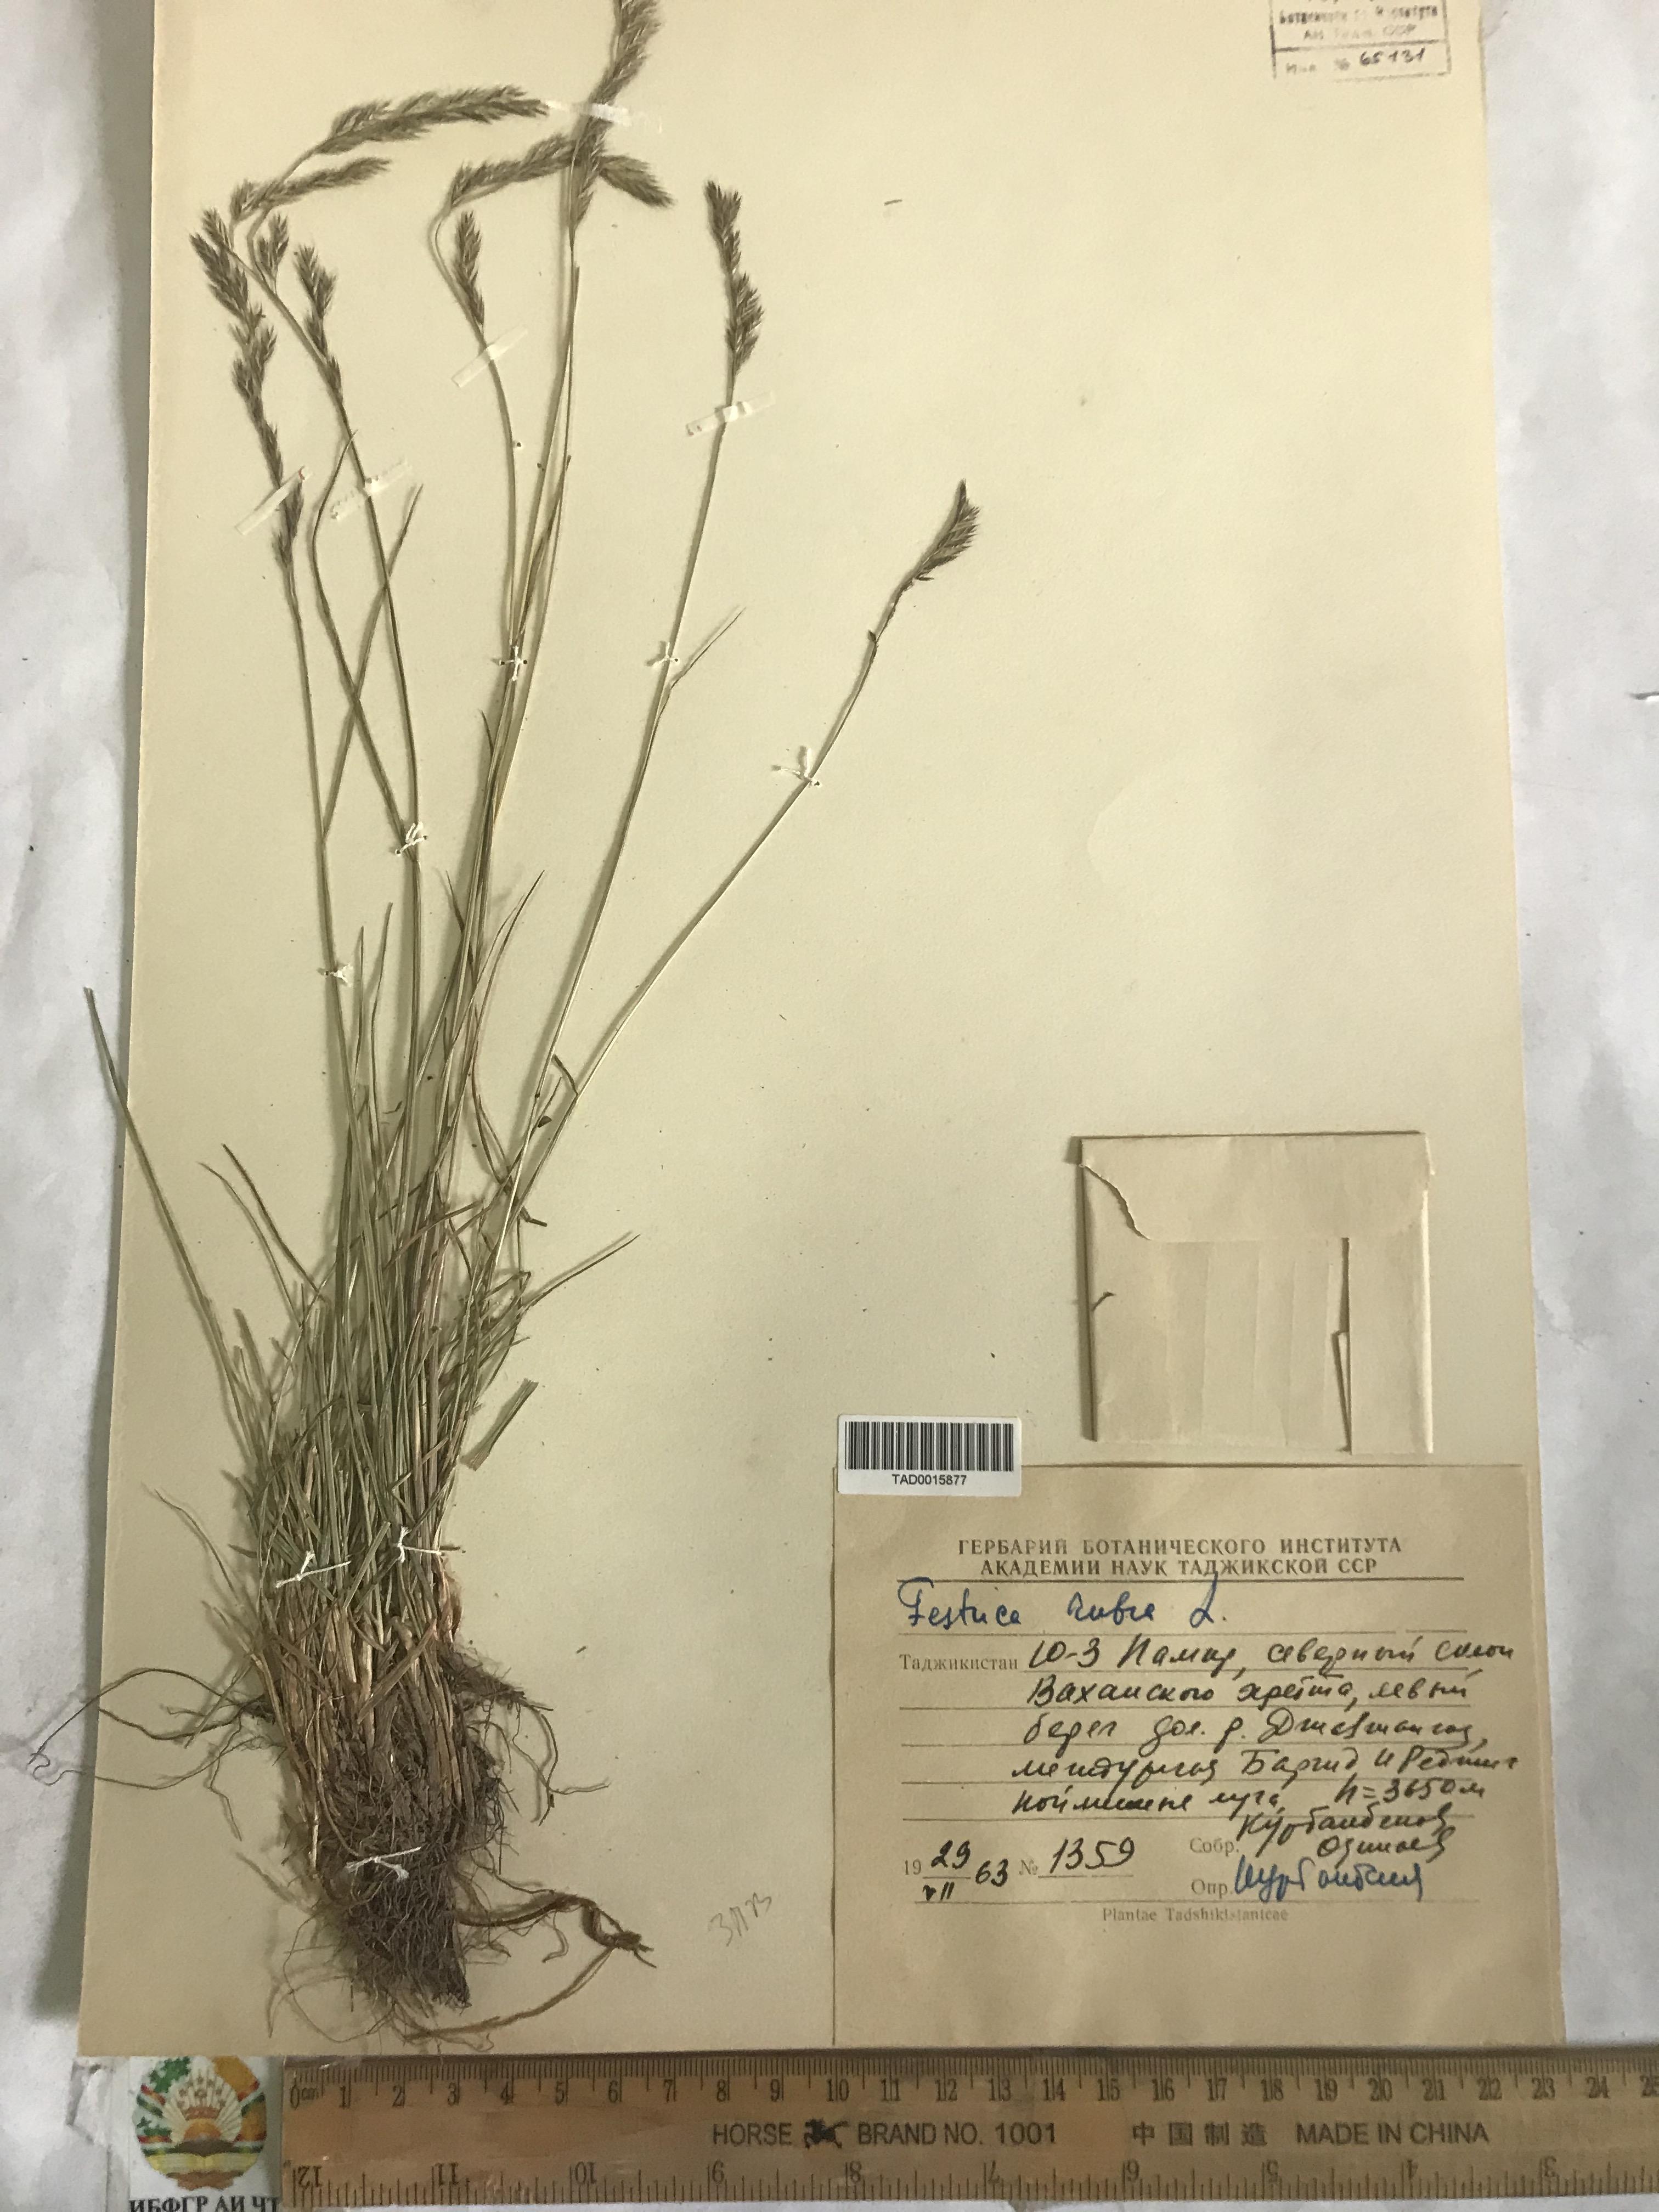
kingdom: Plantae
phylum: Tracheophyta
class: Liliopsida
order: Poales
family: Poaceae
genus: Festuca
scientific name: Festuca rubra
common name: Red fescue
